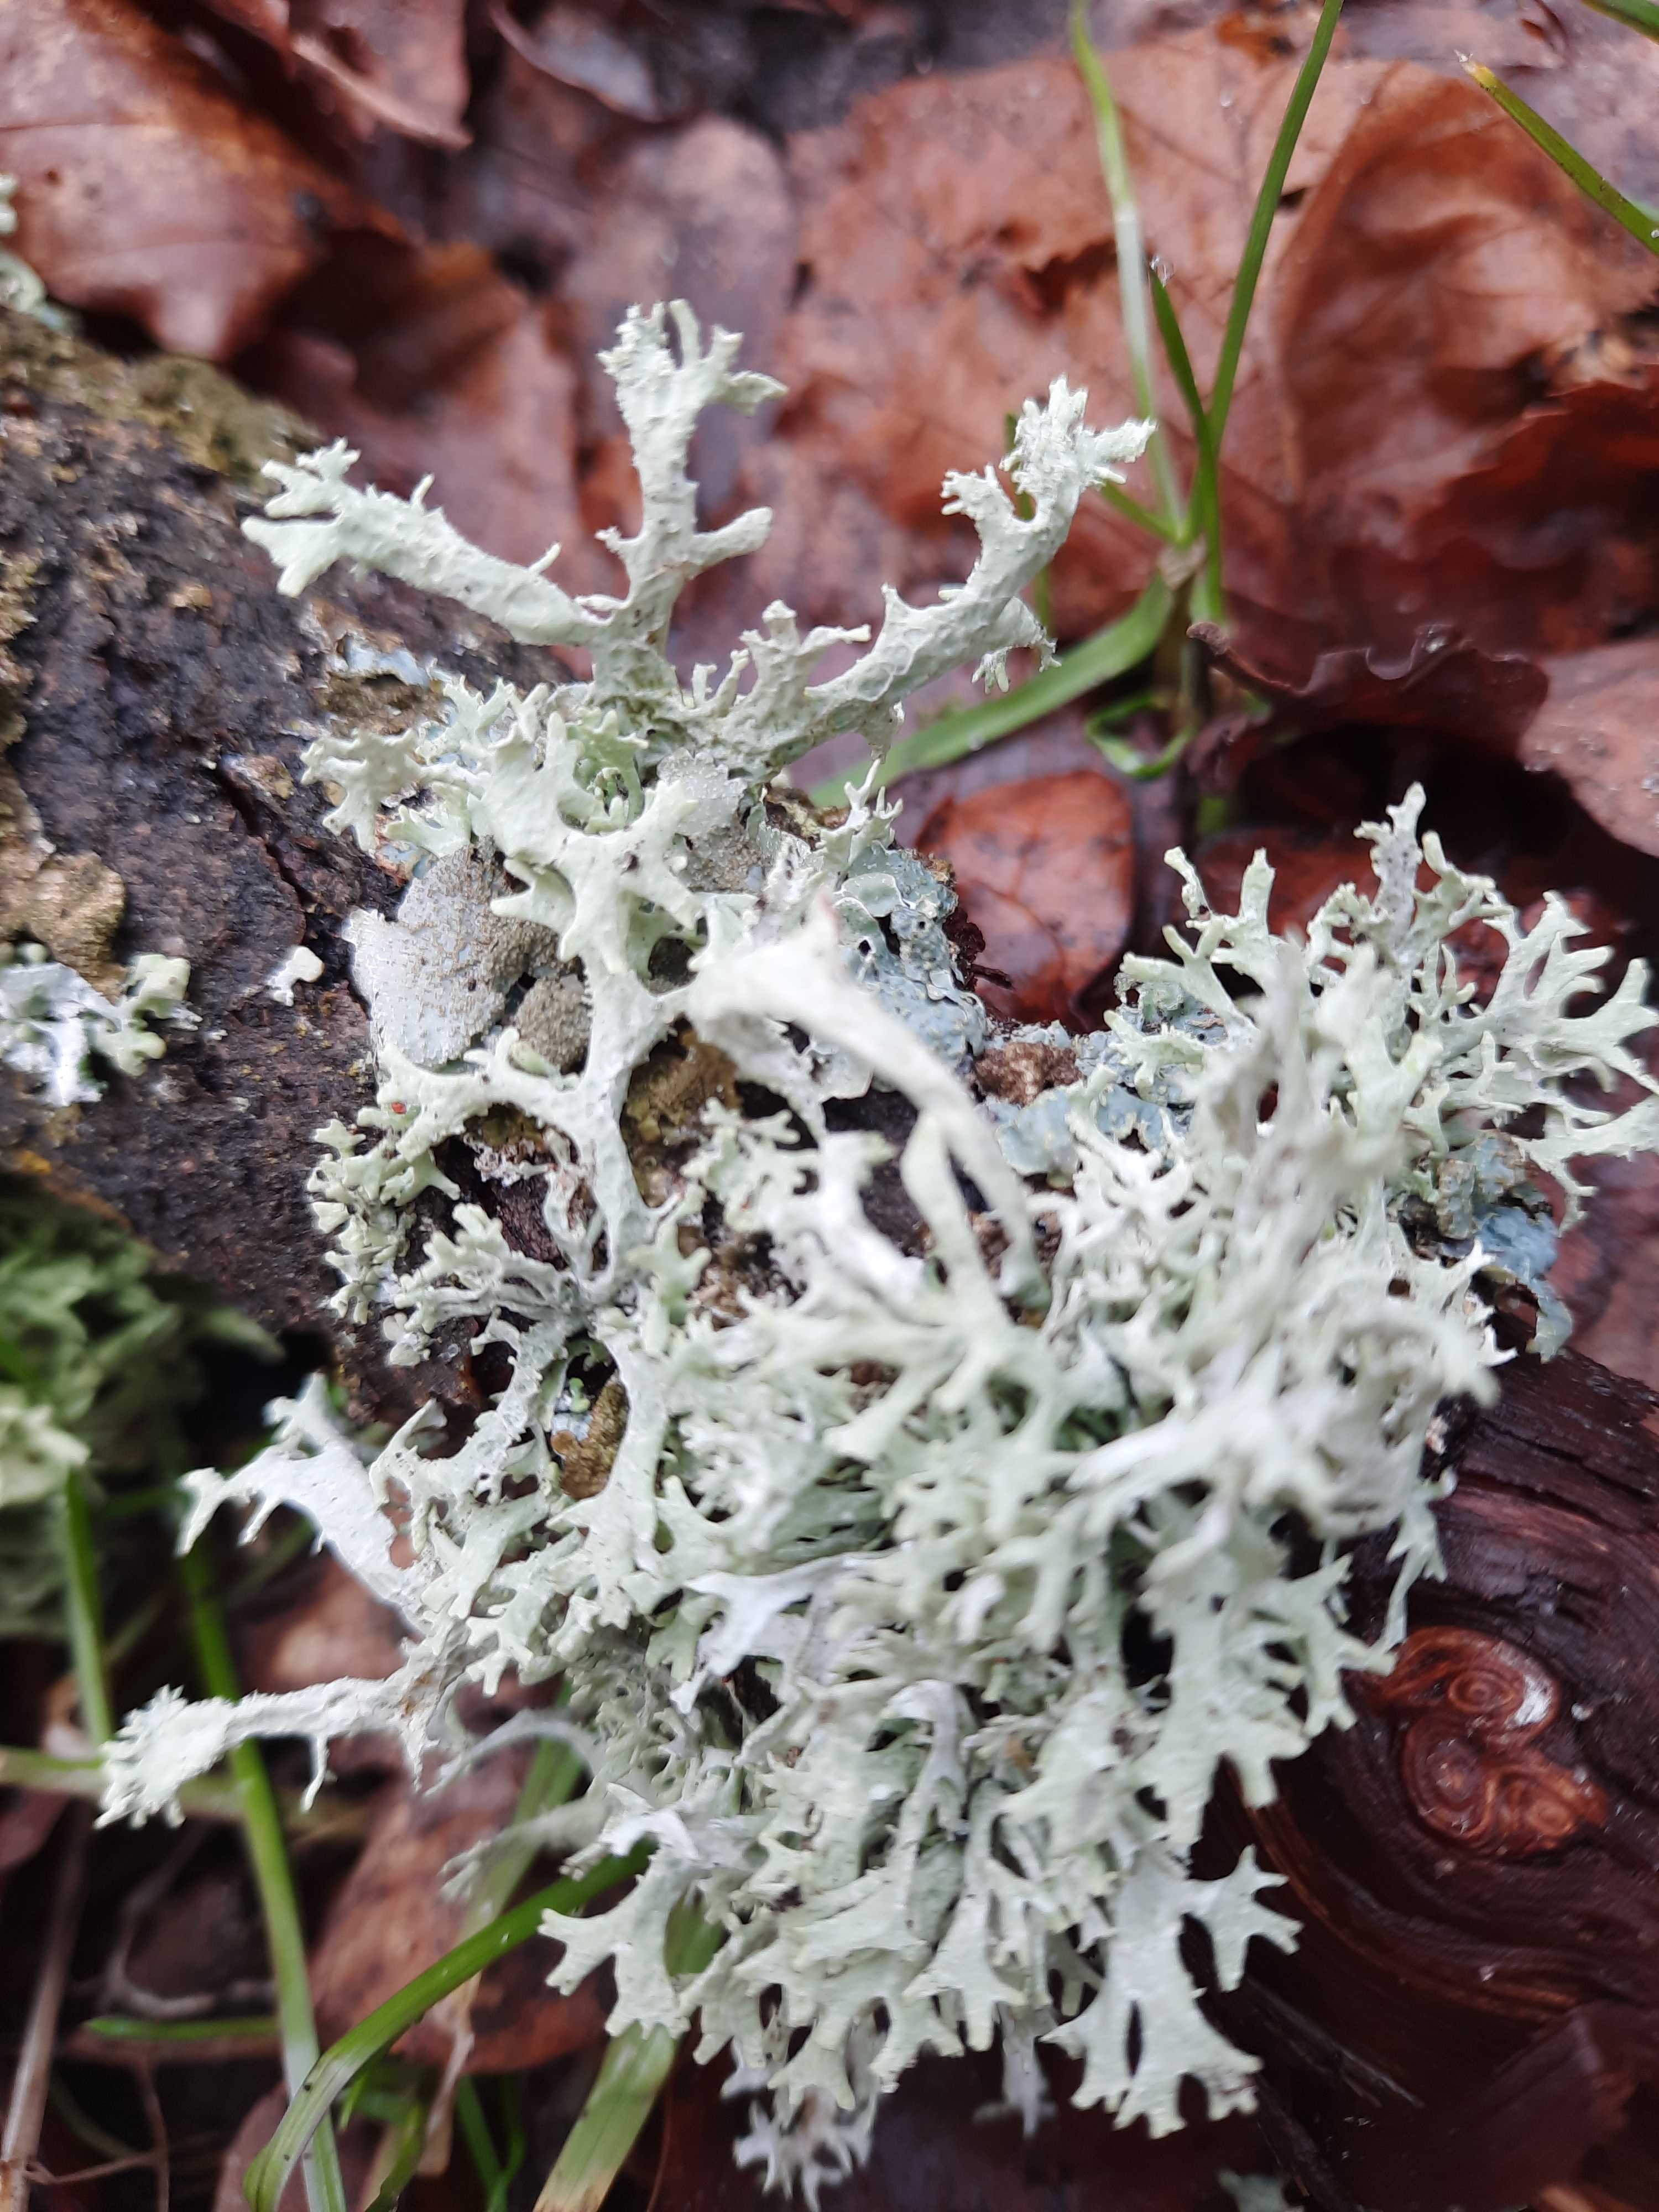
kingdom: Fungi
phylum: Ascomycota
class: Lecanoromycetes
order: Lecanorales
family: Parmeliaceae
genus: Evernia
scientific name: Evernia prunastri
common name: almindelig slåenlav
